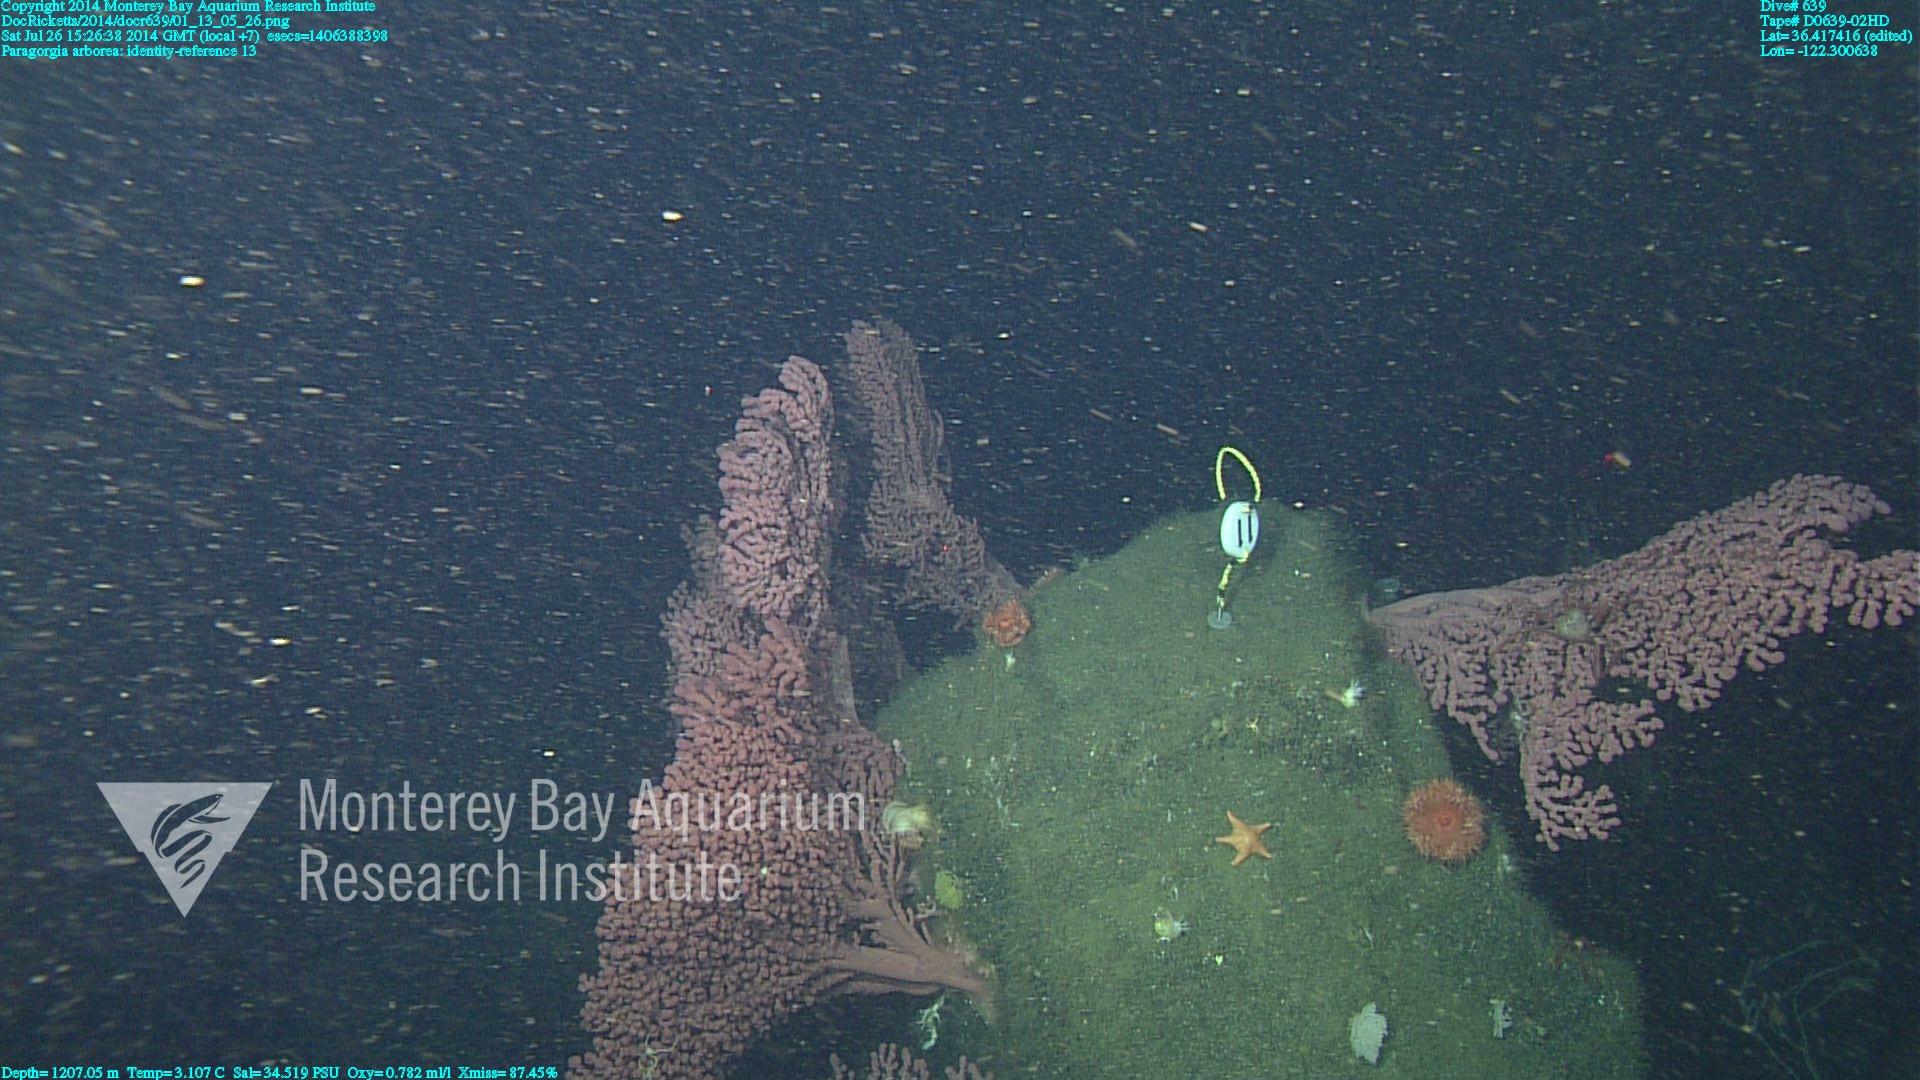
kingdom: Animalia
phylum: Cnidaria
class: Anthozoa
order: Scleralcyonacea
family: Coralliidae
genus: Paragorgia
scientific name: Paragorgia arborea
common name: Bubble gum coral
